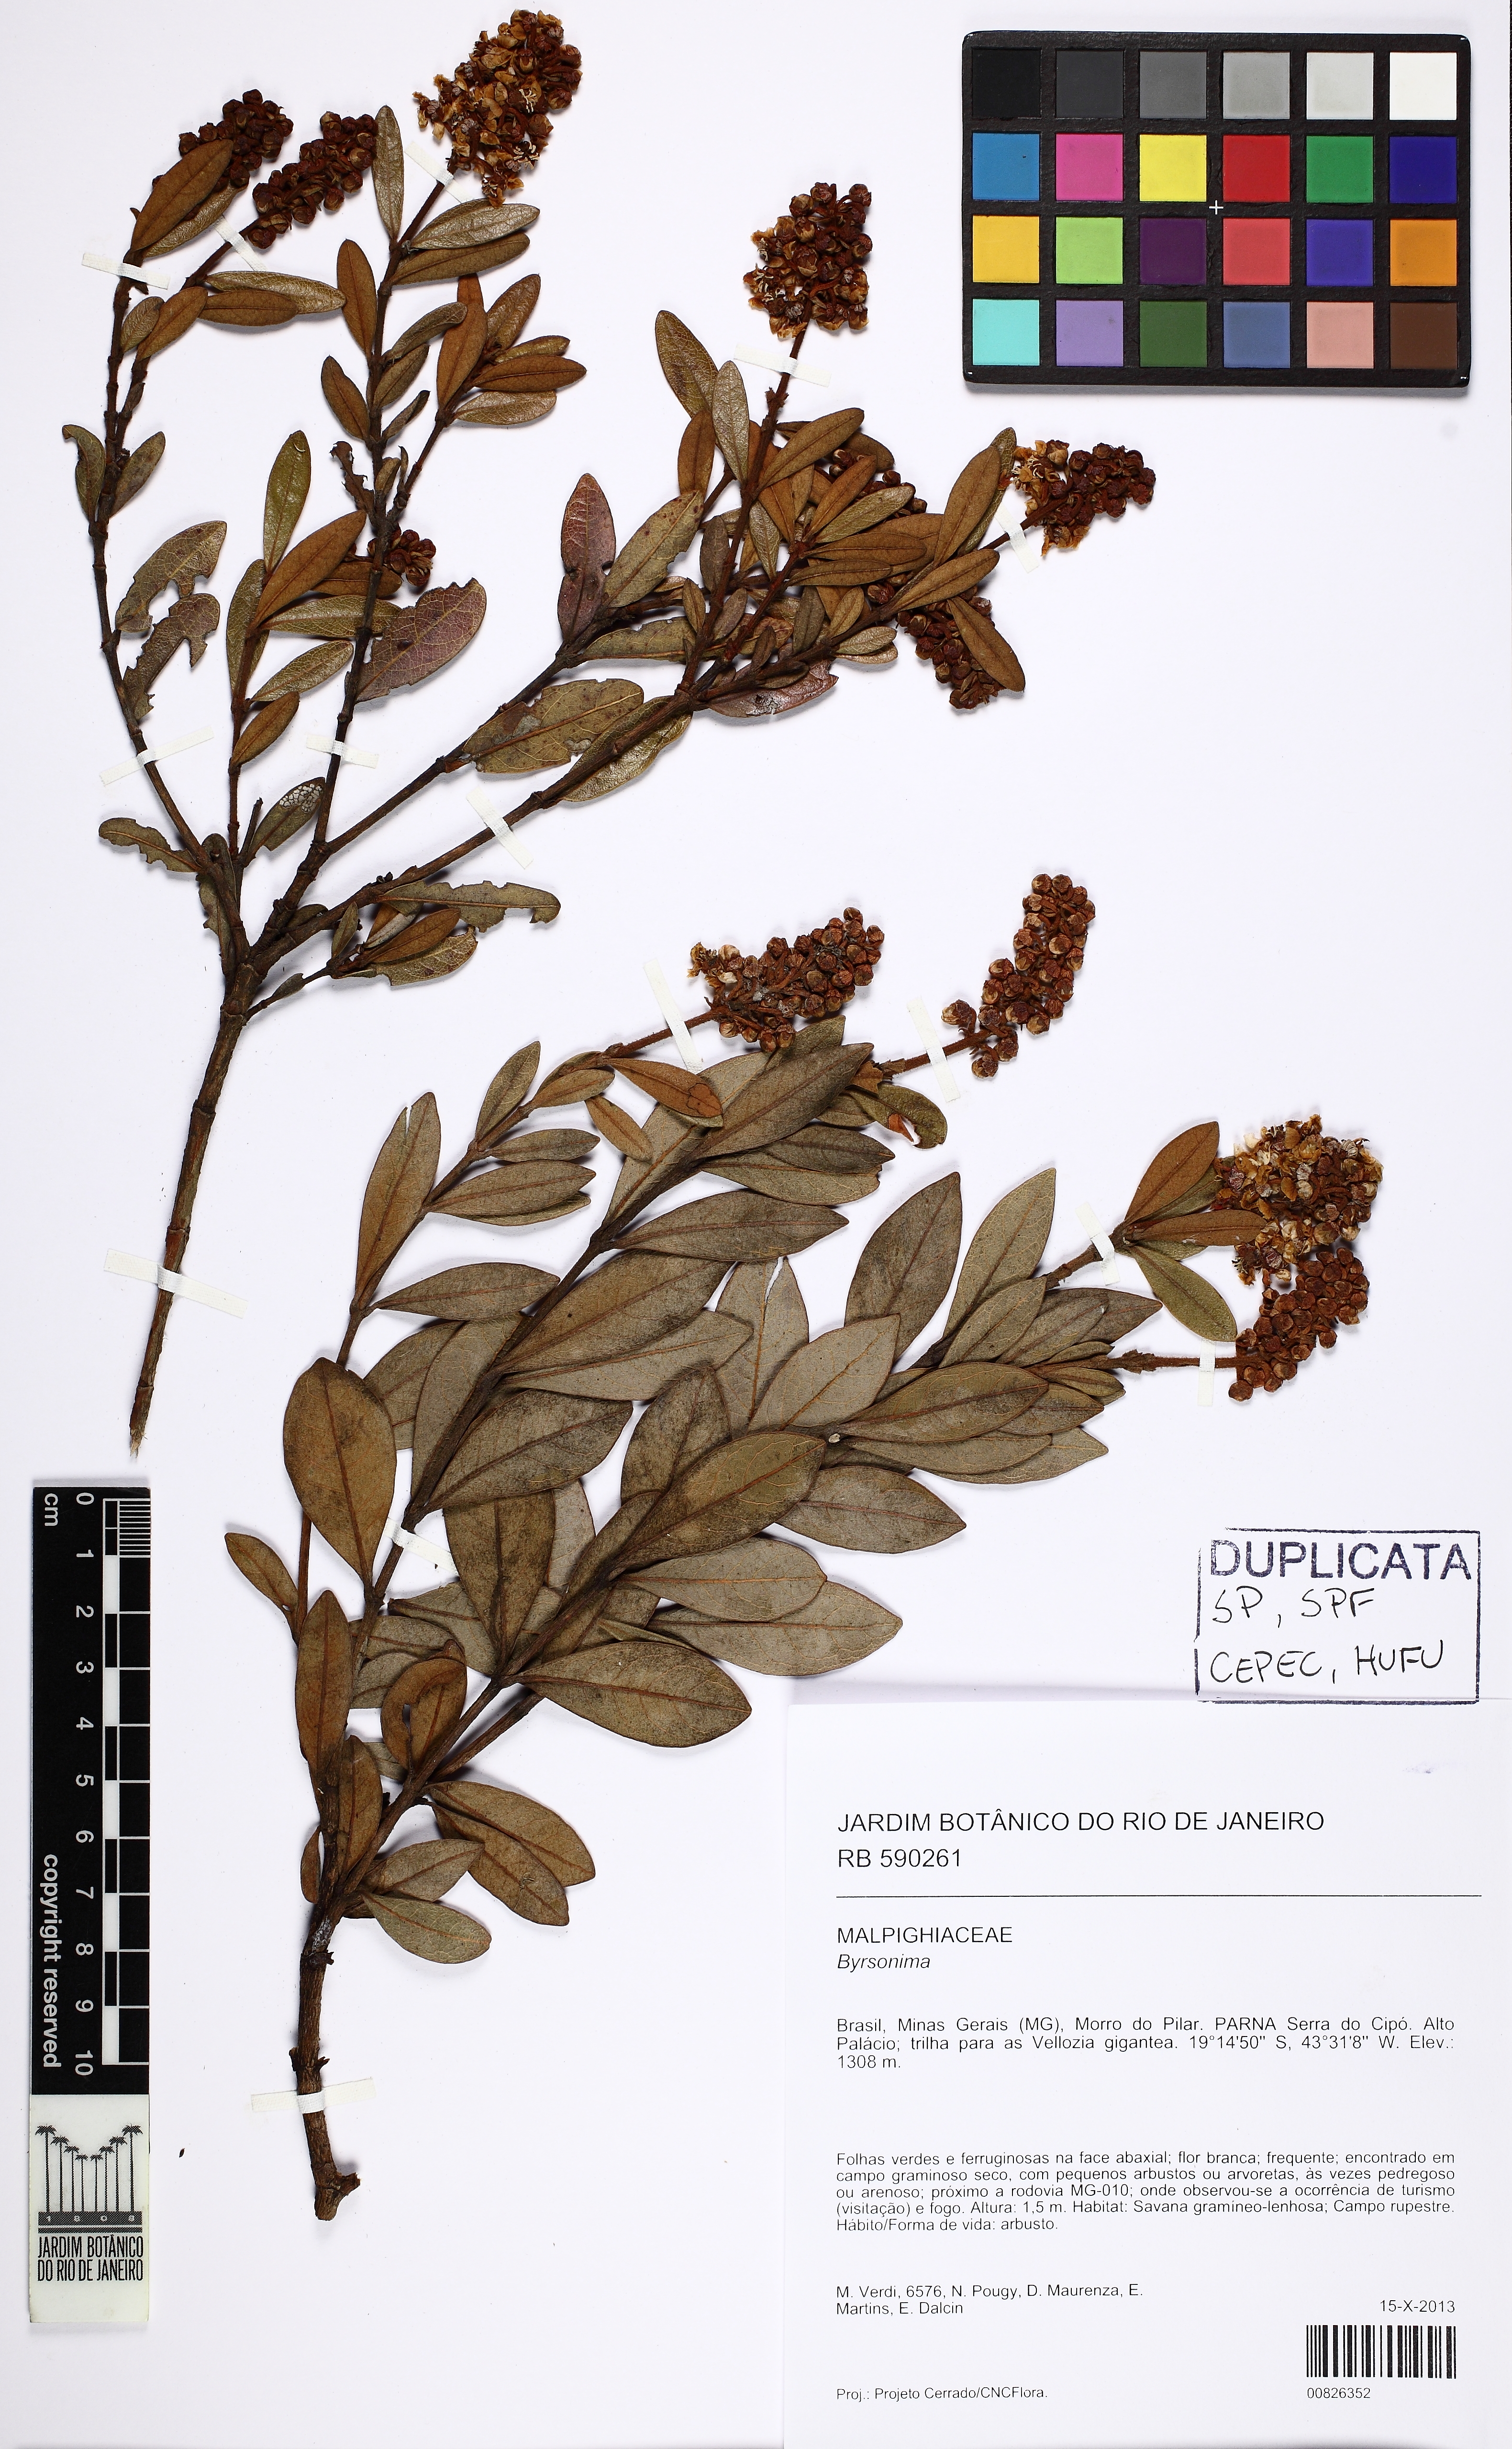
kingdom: Plantae
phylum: Tracheophyta
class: Magnoliopsida
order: Malpighiales
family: Malpighiaceae
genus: Byrsonima
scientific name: Byrsonima
